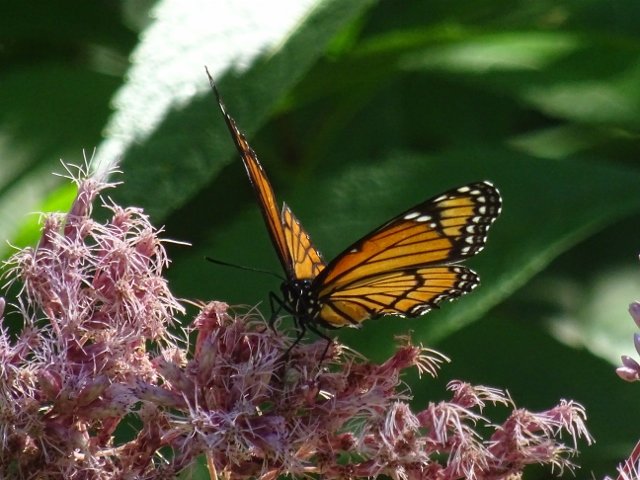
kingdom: Animalia
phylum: Arthropoda
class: Insecta
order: Lepidoptera
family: Nymphalidae
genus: Limenitis
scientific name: Limenitis archippus
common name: Viceroy
